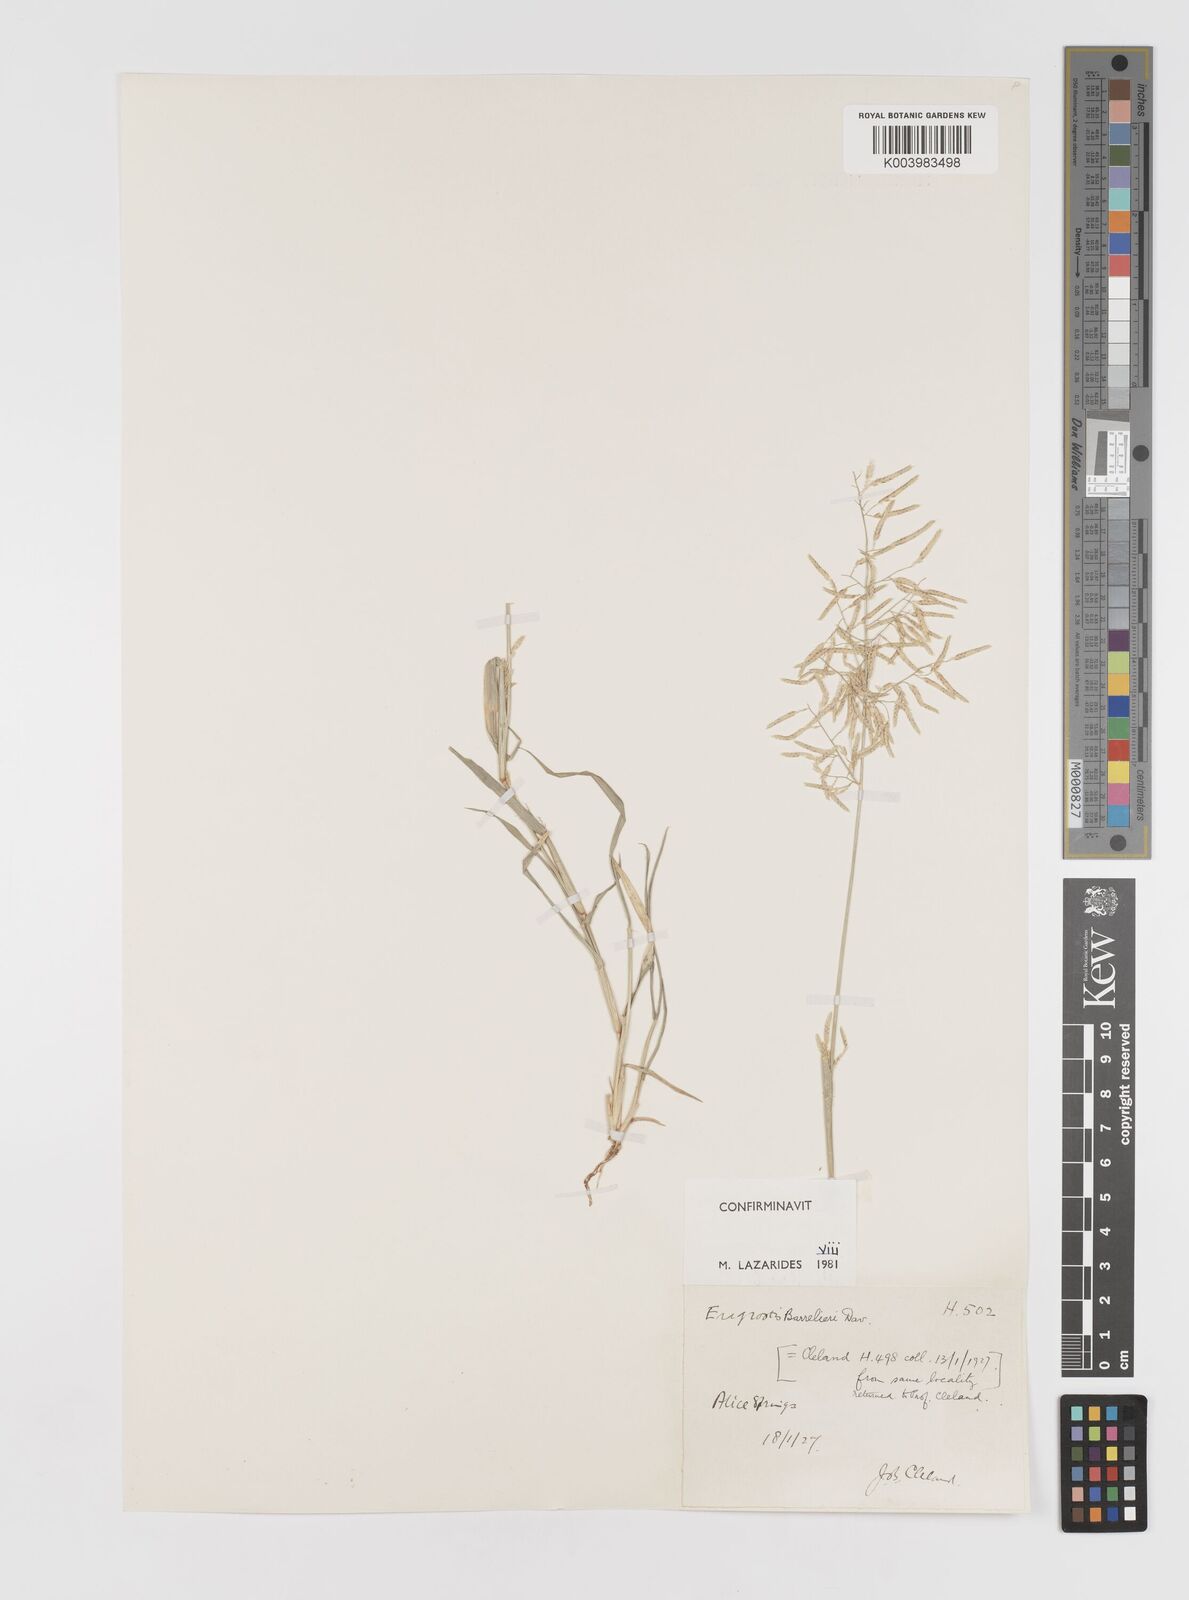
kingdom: Plantae
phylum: Tracheophyta
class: Liliopsida
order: Poales
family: Poaceae
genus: Eragrostis
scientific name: Eragrostis barrelieri
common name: Mediterranean lovegrass
